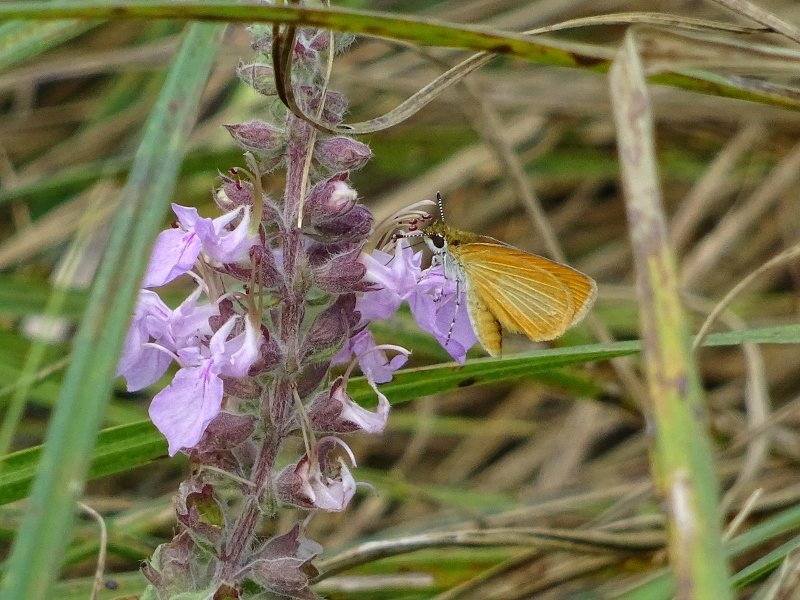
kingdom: Animalia
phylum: Arthropoda
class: Insecta
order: Lepidoptera
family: Hesperiidae
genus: Ancyloxypha
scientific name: Ancyloxypha numitor
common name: Least Skipper
